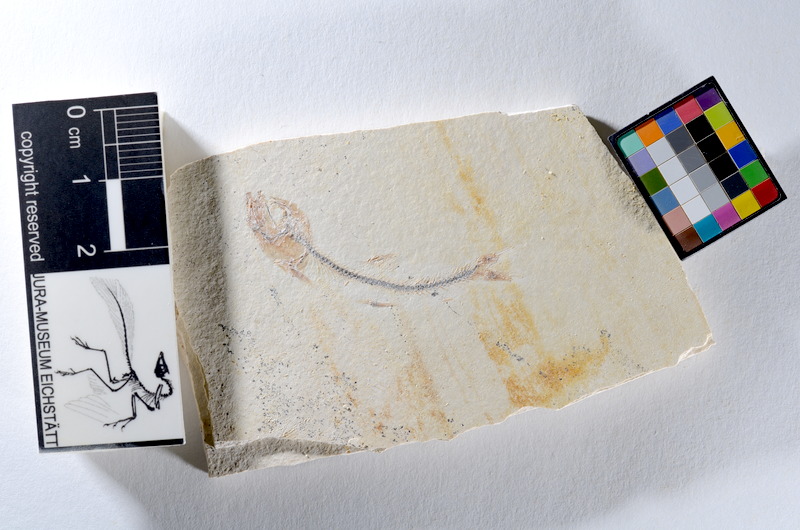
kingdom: Animalia
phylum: Chordata
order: Salmoniformes
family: Orthogonikleithridae
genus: Orthogonikleithrus
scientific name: Orthogonikleithrus hoelli
